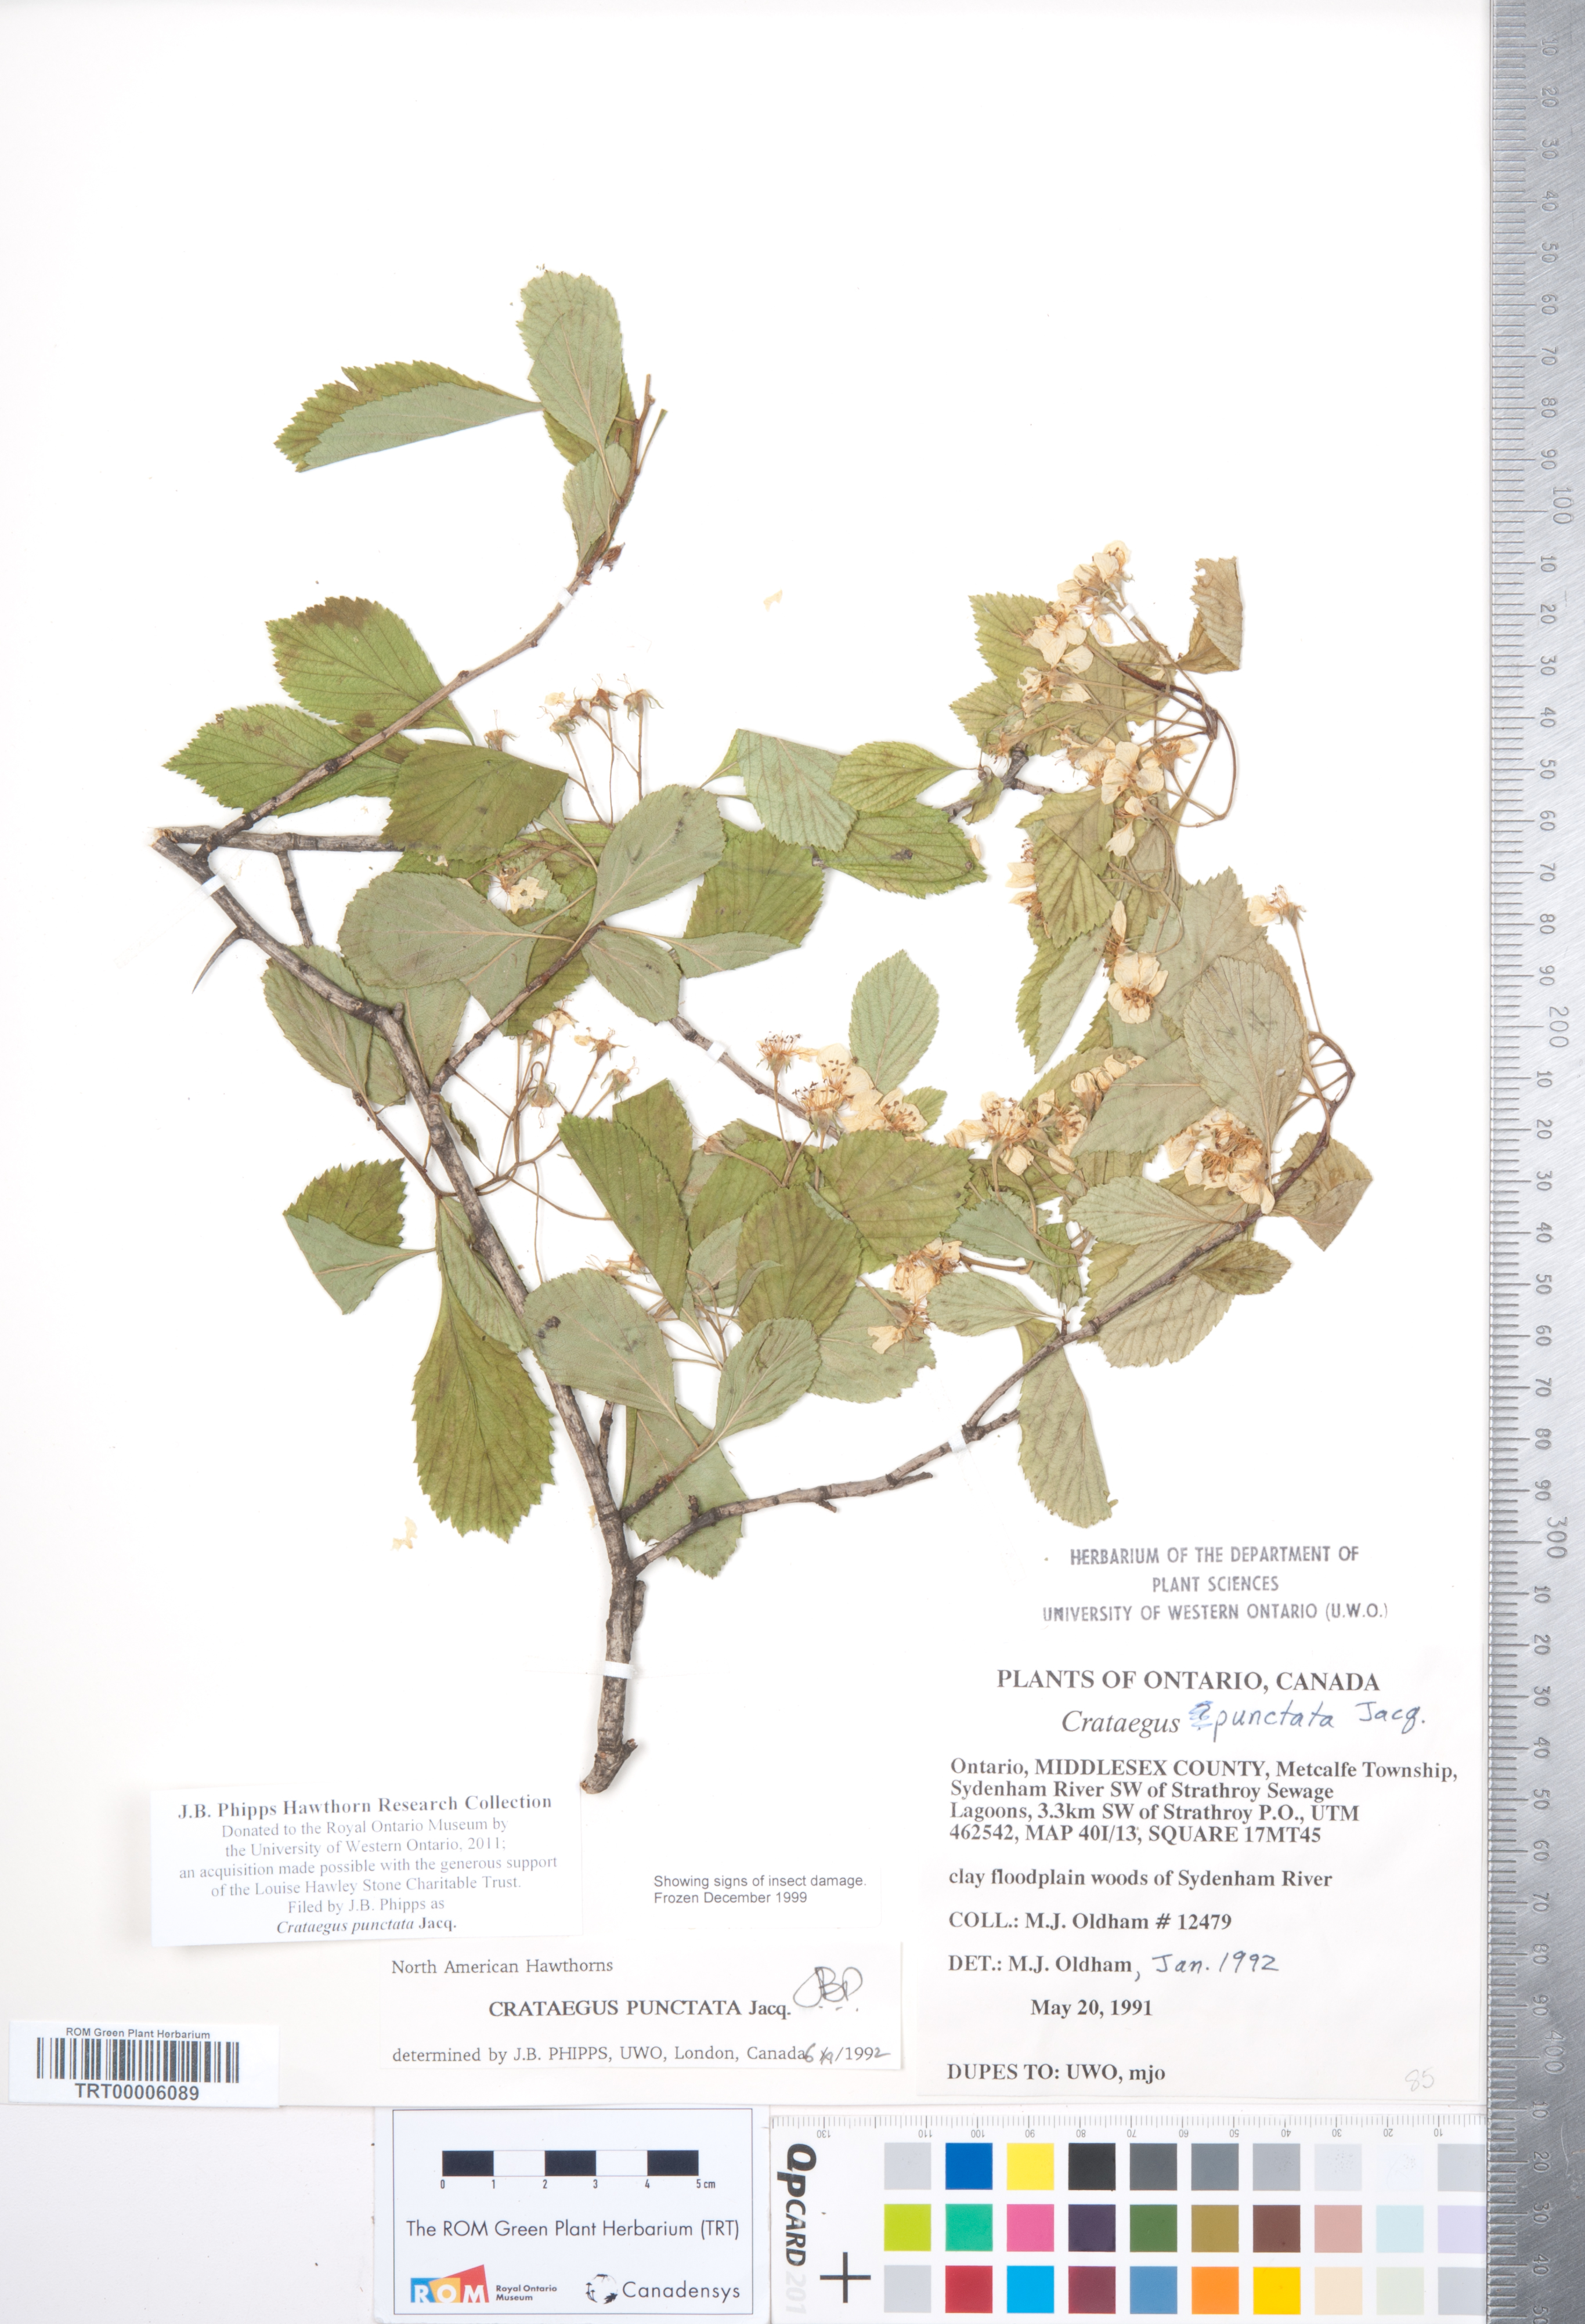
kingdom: Plantae
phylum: Tracheophyta
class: Magnoliopsida
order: Rosales
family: Rosaceae
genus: Crataegus
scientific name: Crataegus punctata
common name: Dotted hawthorn
